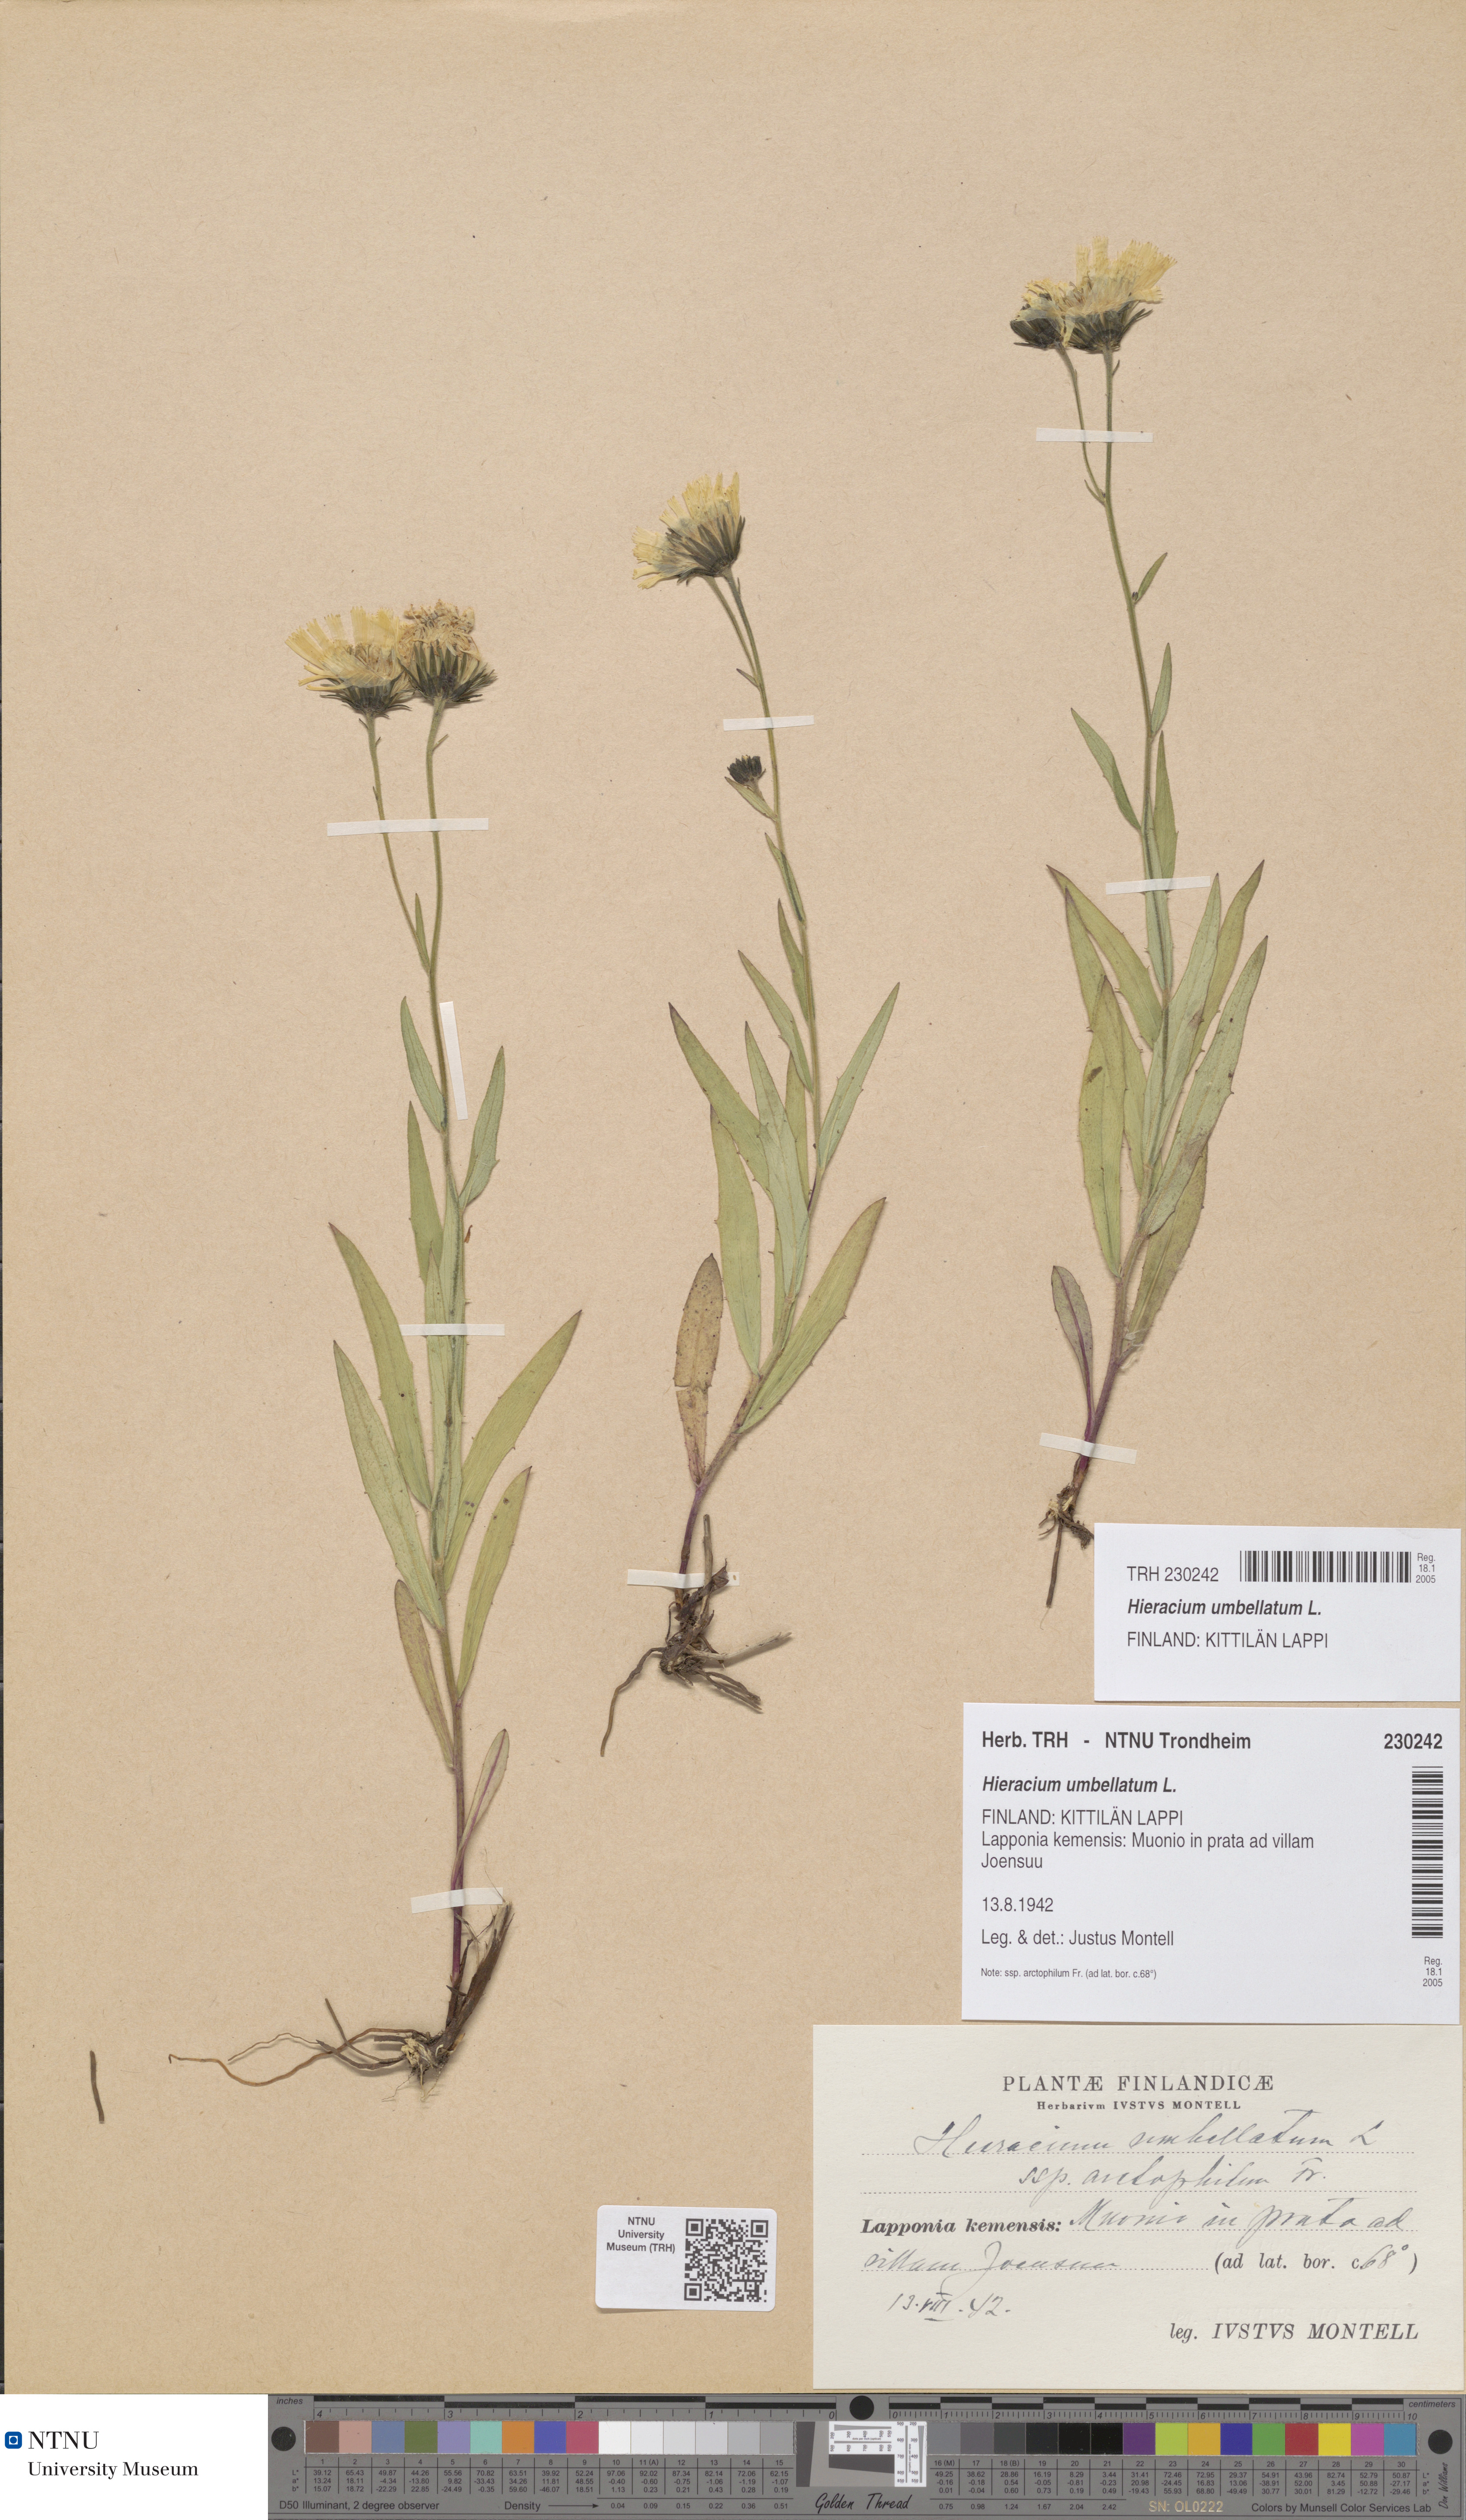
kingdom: Plantae
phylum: Tracheophyta
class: Magnoliopsida
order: Asterales
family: Asteraceae
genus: Hieracium
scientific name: Hieracium umbellatum
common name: Northern hawkweed
